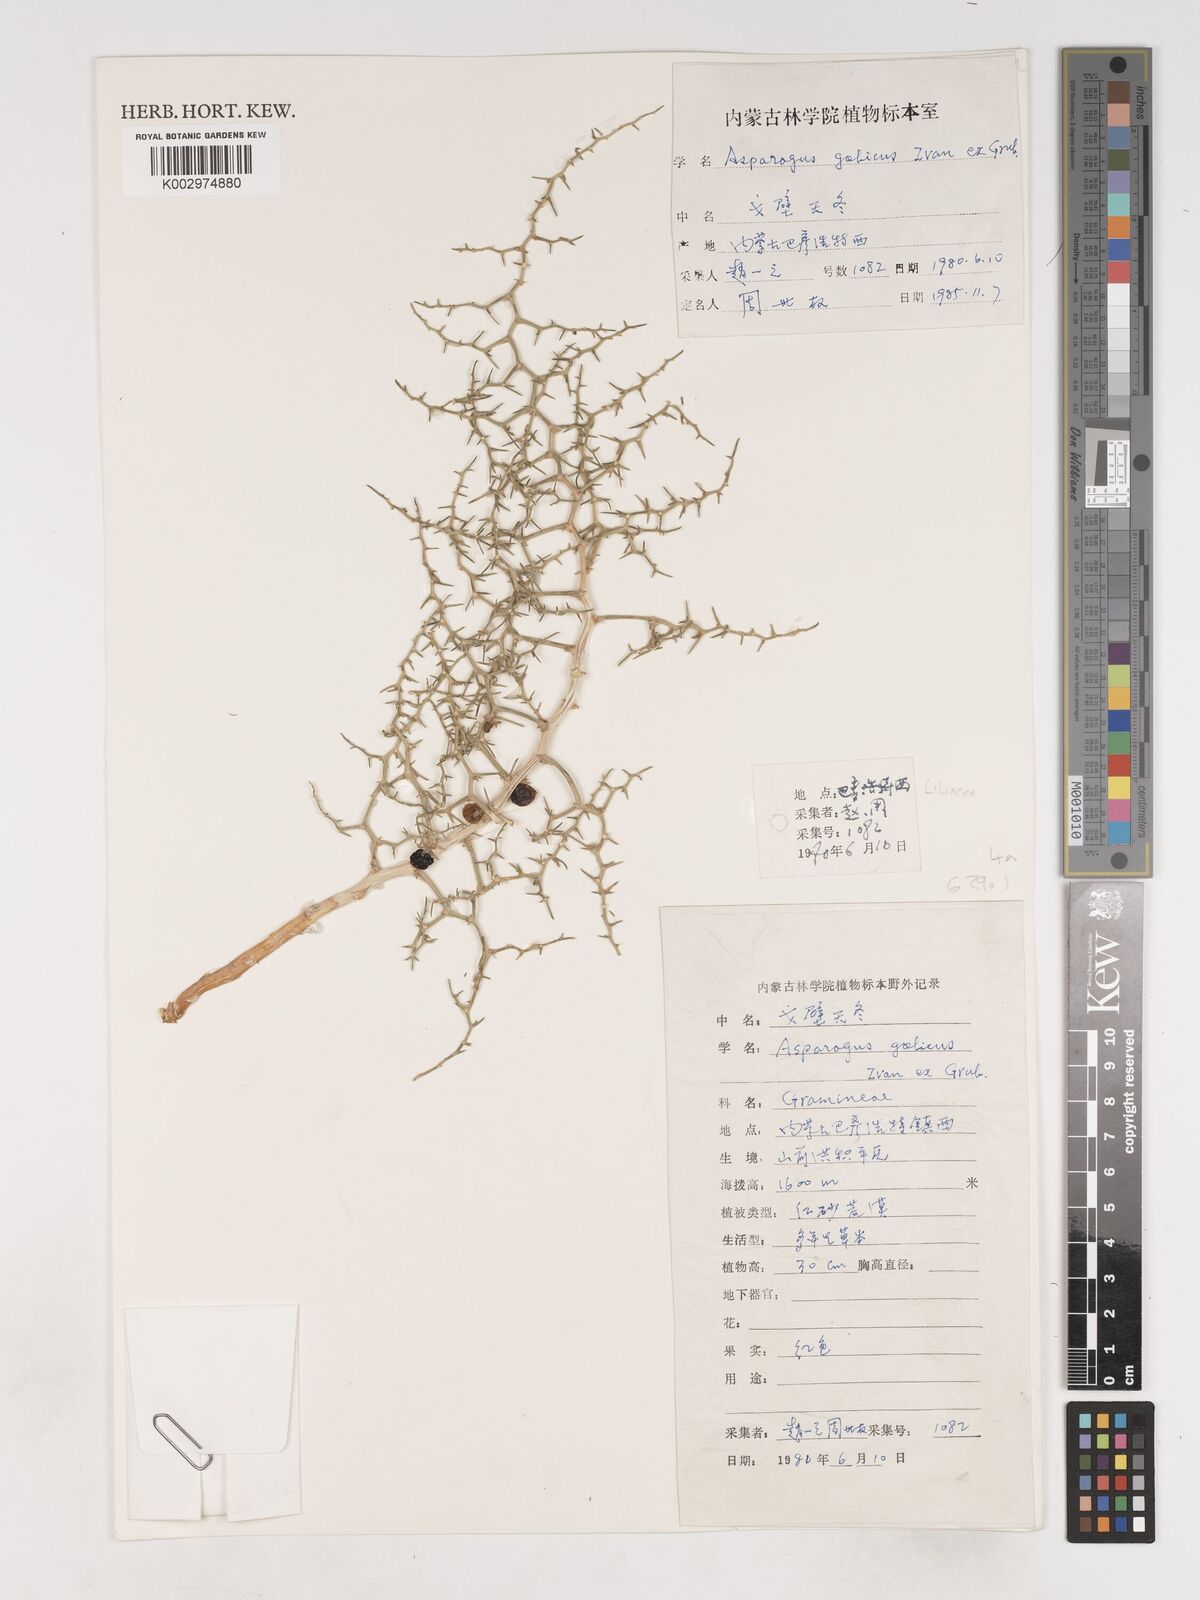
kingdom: Plantae
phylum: Tracheophyta
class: Liliopsida
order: Asparagales
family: Asparagaceae
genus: Asparagus
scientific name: Asparagus
